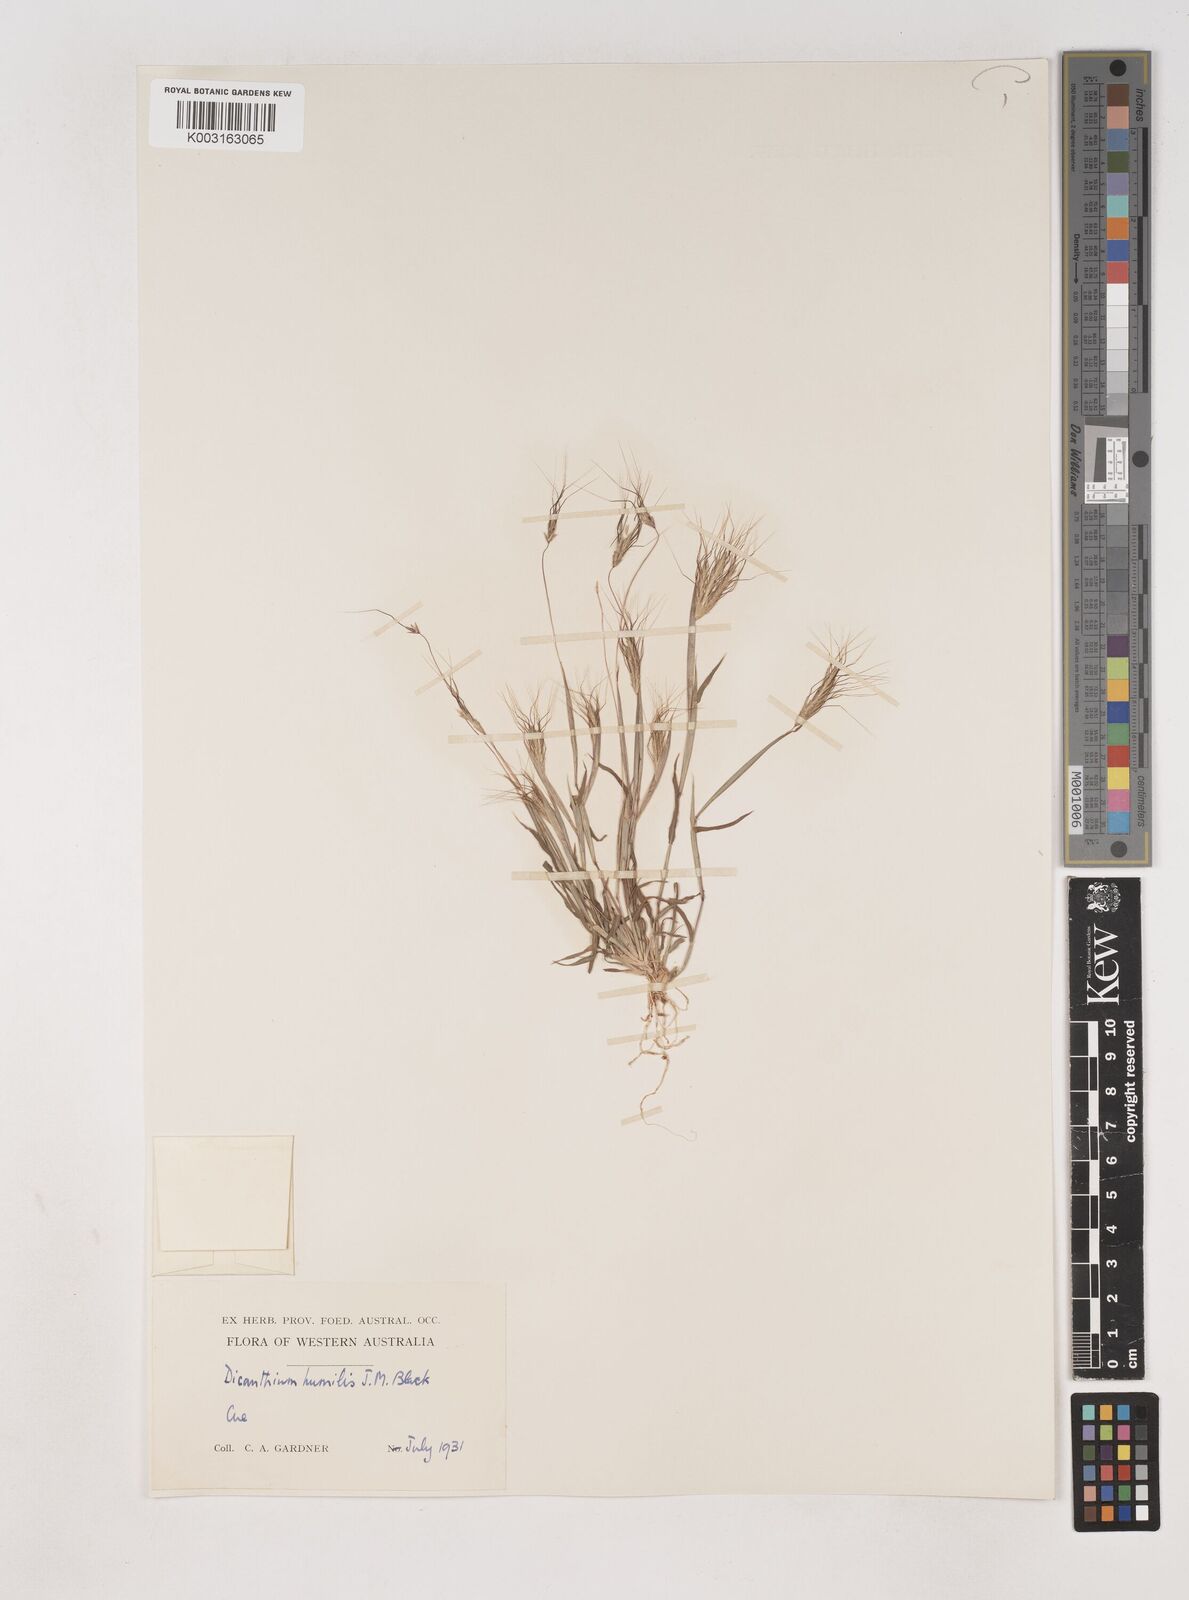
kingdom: Plantae
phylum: Tracheophyta
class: Liliopsida
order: Poales
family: Poaceae
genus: Dichanthium
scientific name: Dichanthium sericeum
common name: Silky bluestem
